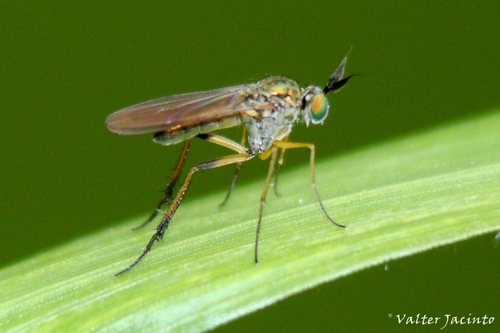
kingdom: Animalia
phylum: Arthropoda
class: Insecta
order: Diptera
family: Dolichopodidae
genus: Syntormon
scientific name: Syntormon pallipes
